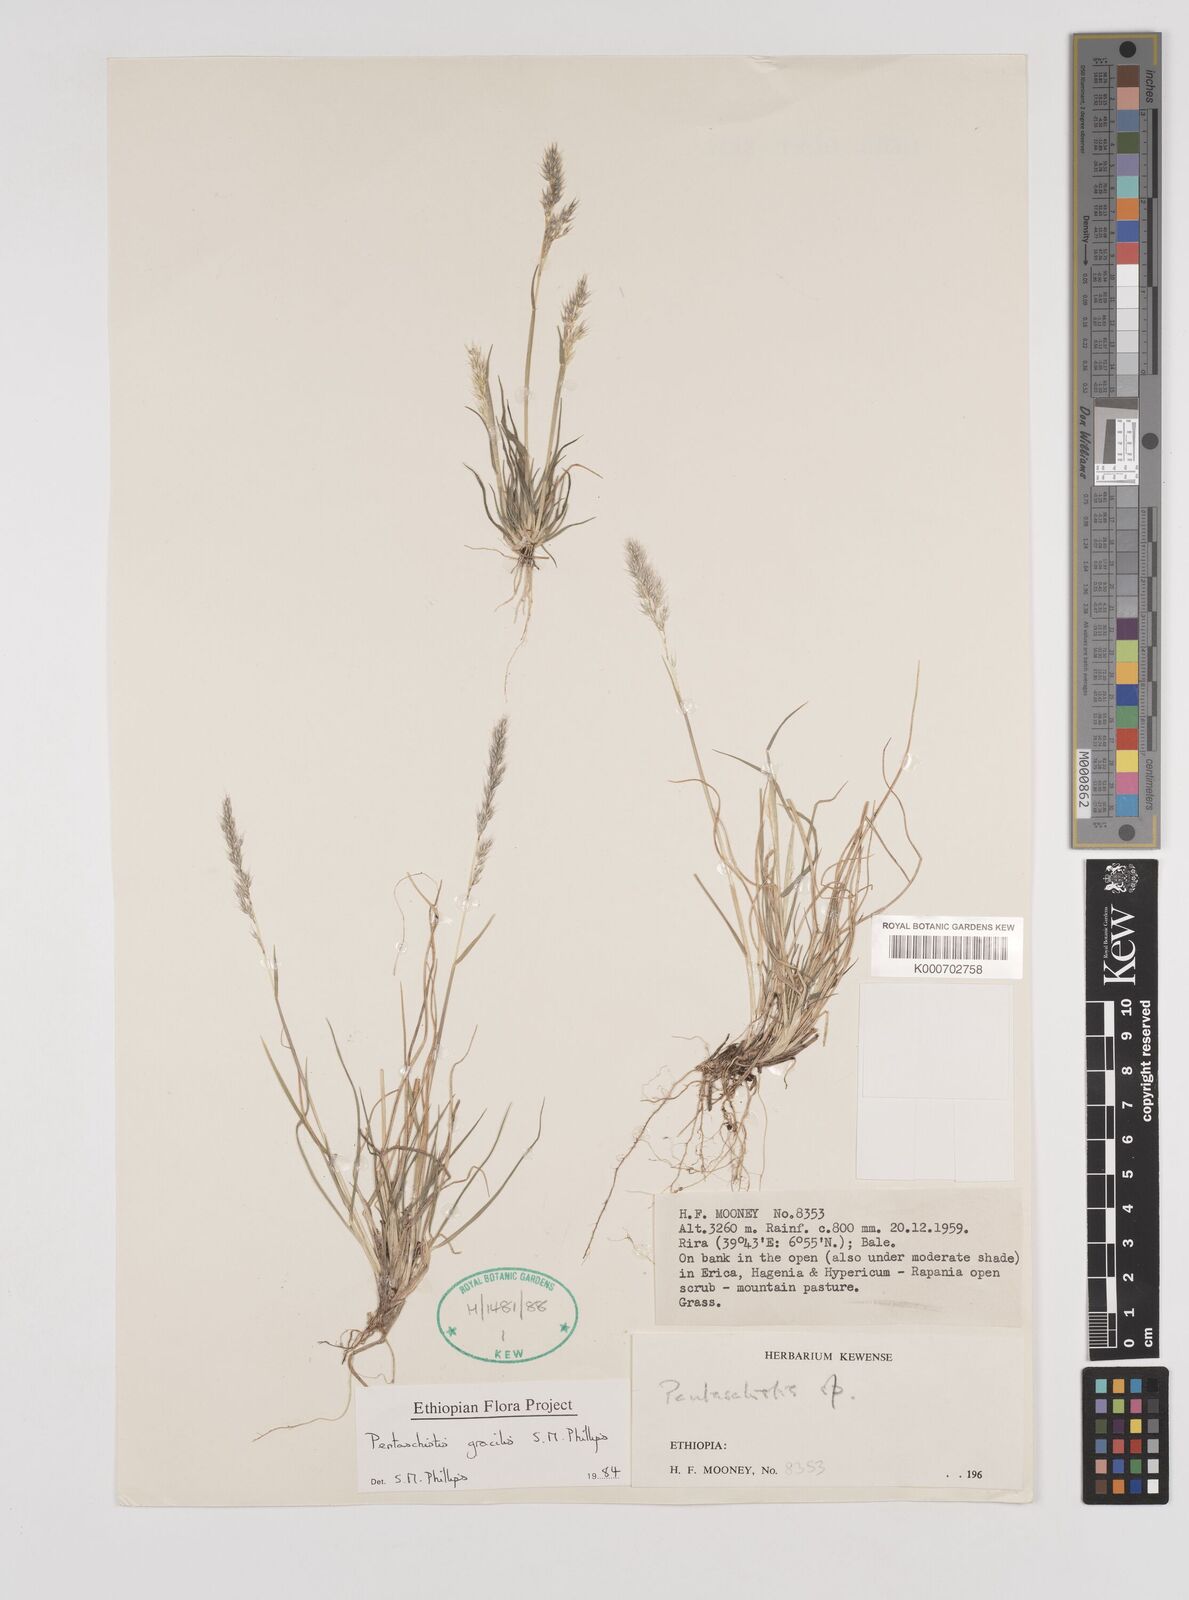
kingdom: Plantae
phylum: Tracheophyta
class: Liliopsida
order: Poales
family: Poaceae
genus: Pentameris
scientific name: Pentameris pictigluma
